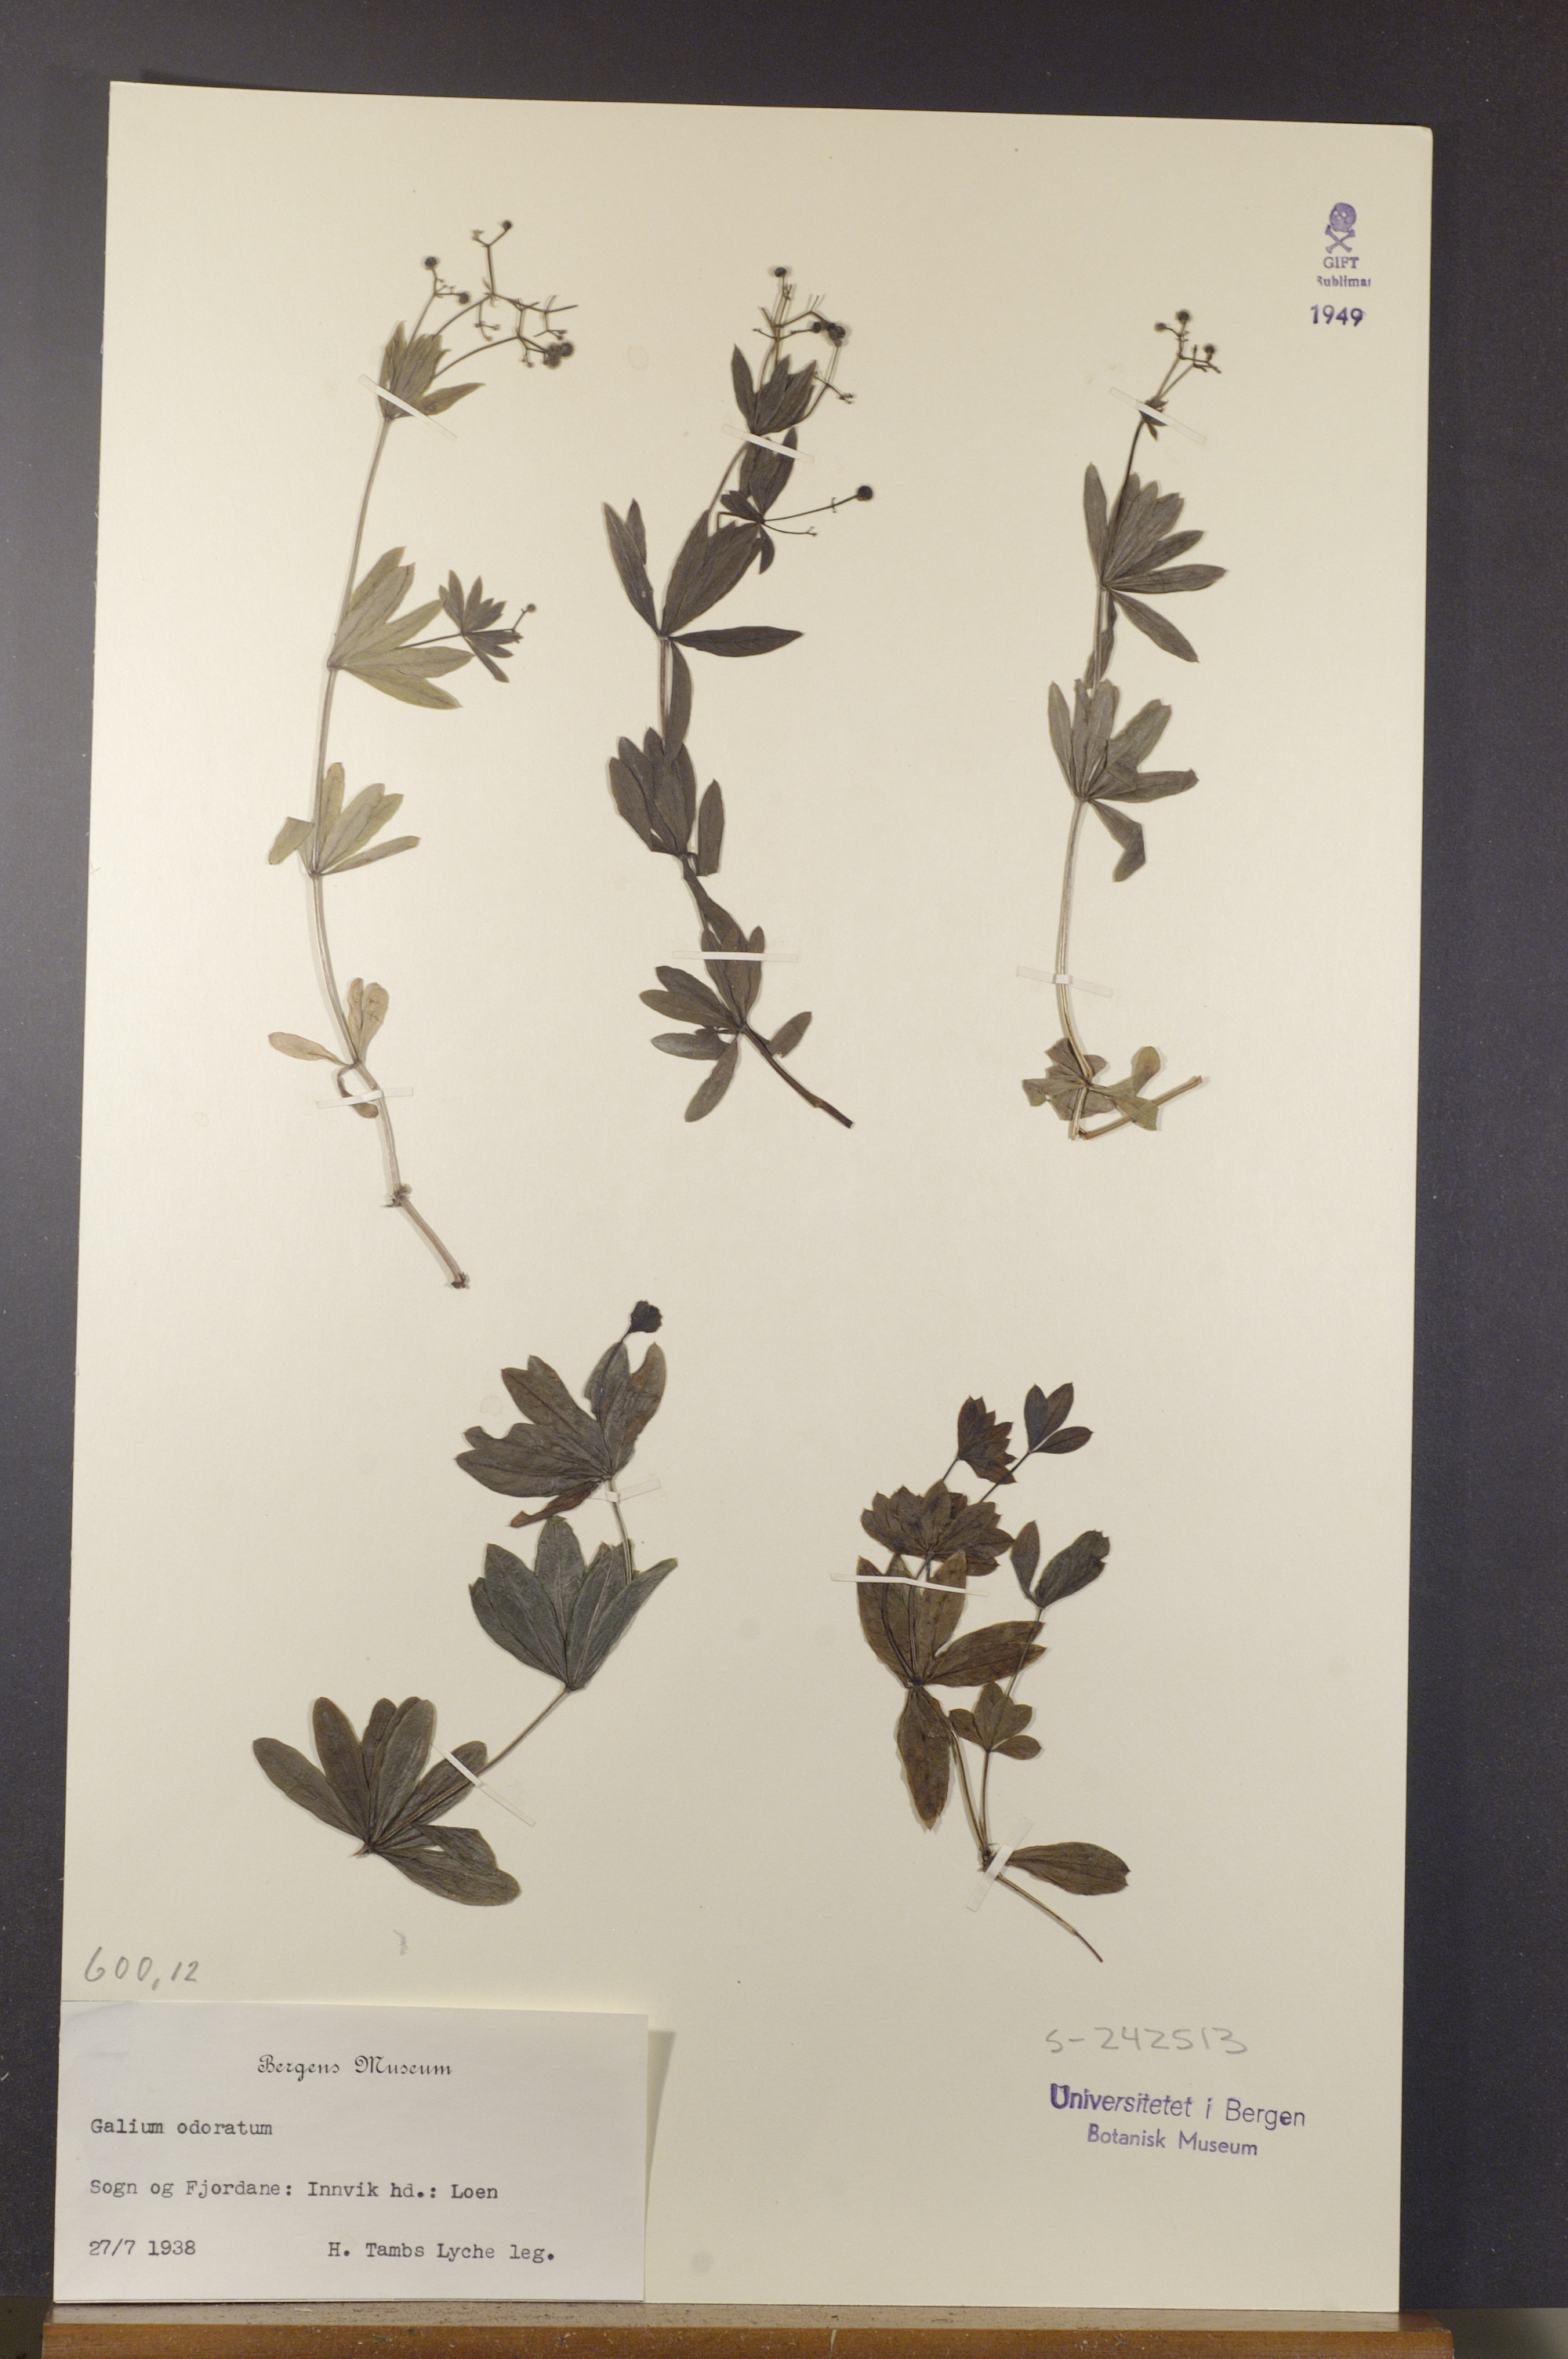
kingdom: Plantae
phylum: Tracheophyta
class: Magnoliopsida
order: Gentianales
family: Rubiaceae
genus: Galium
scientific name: Galium odoratum
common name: Sweet woodruff
